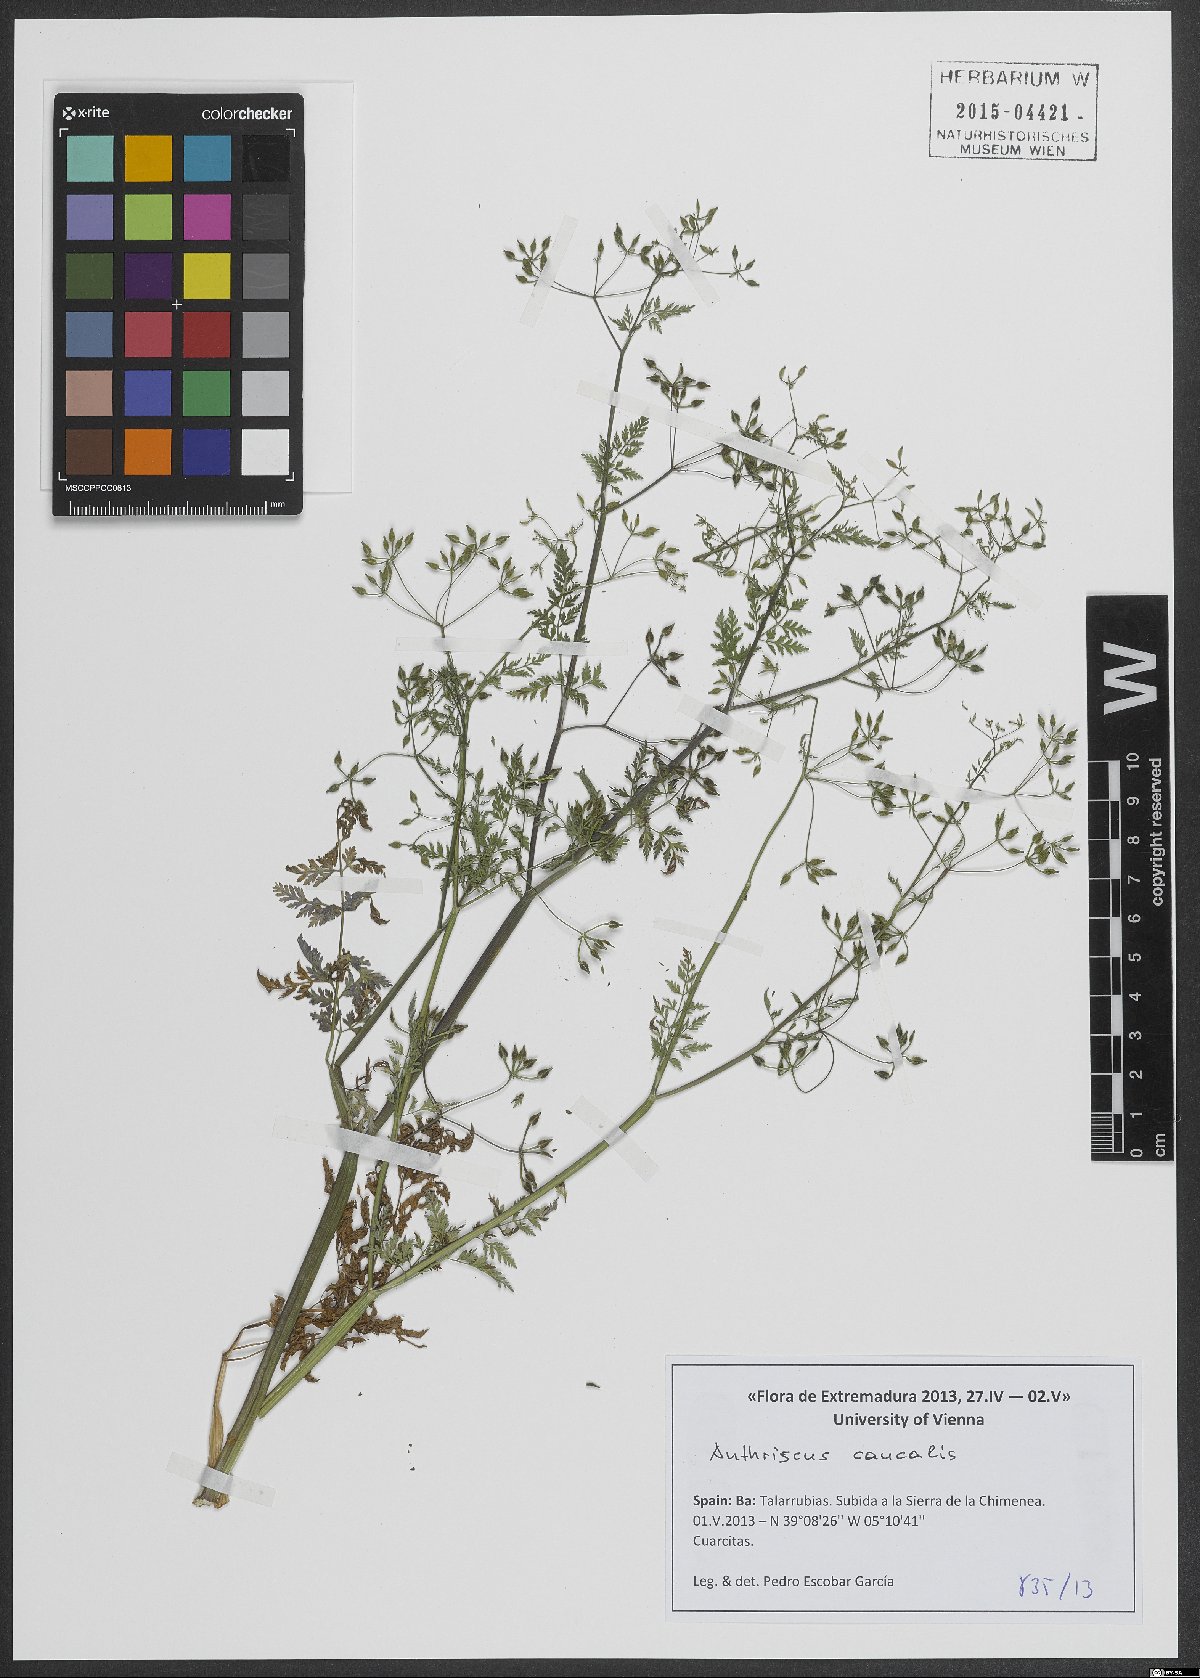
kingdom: Plantae
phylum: Tracheophyta
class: Magnoliopsida
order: Apiales
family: Apiaceae
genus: Anthriscus
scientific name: Anthriscus caucalis
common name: Bur chervil
